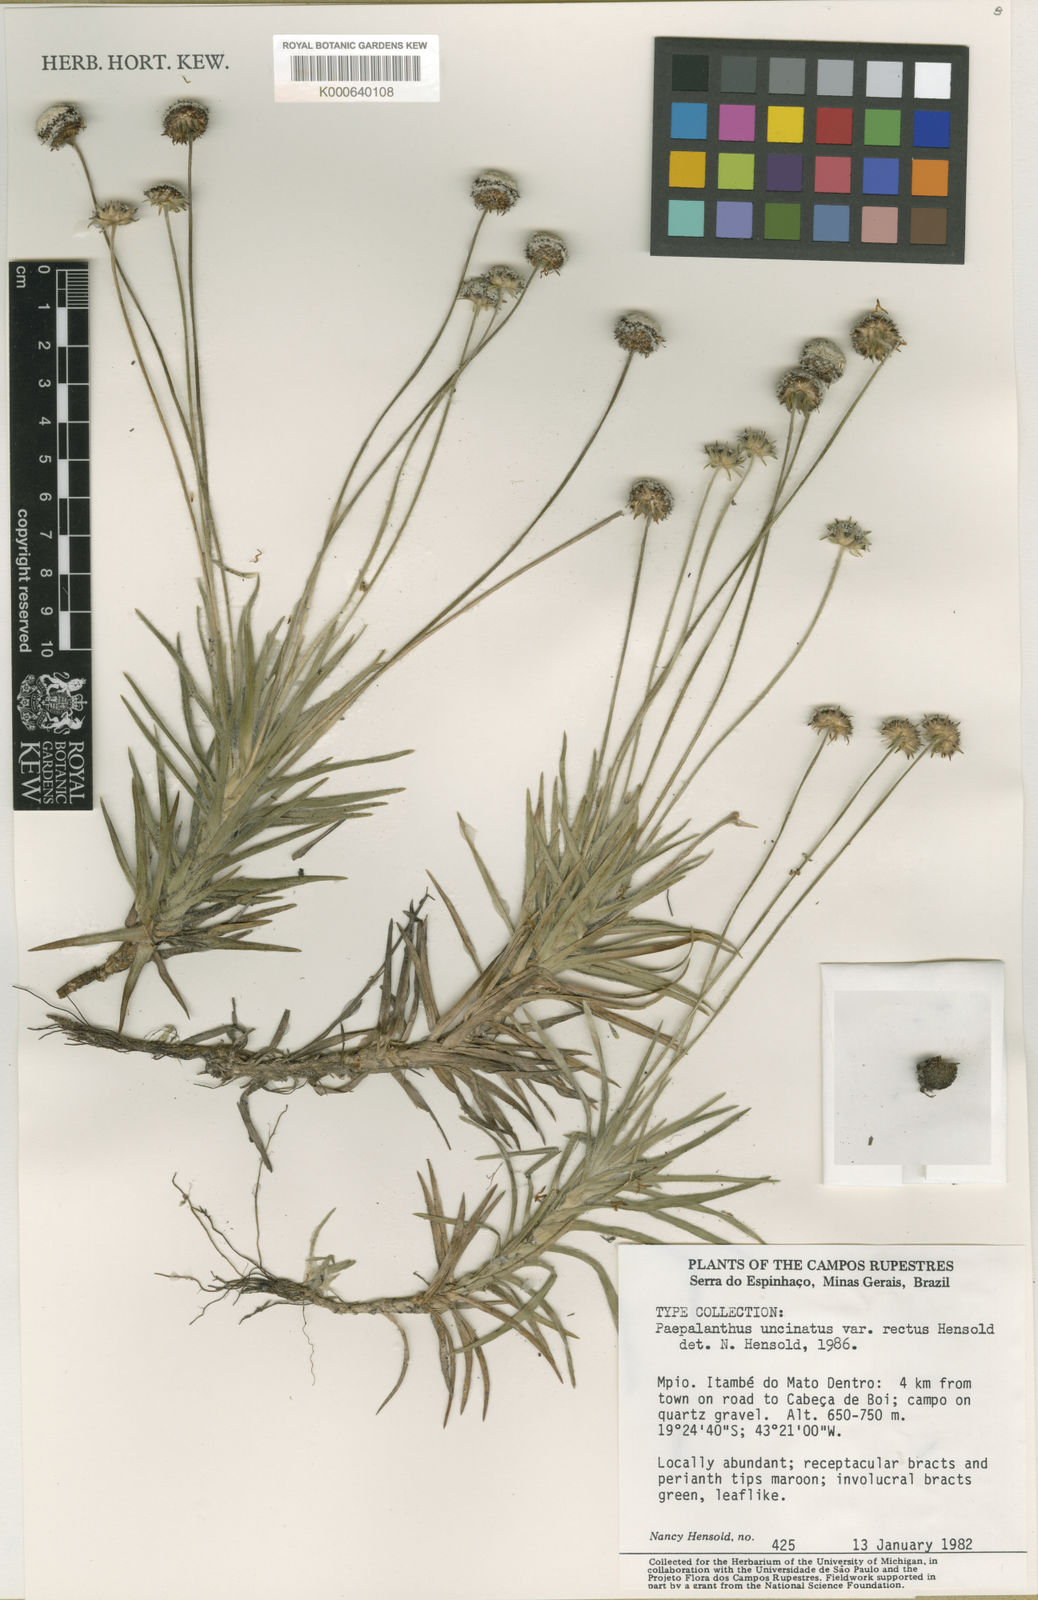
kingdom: Plantae
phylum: Tracheophyta
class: Liliopsida
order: Poales
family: Eriocaulaceae
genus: Paepalanthus
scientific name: Paepalanthus uncinatus
